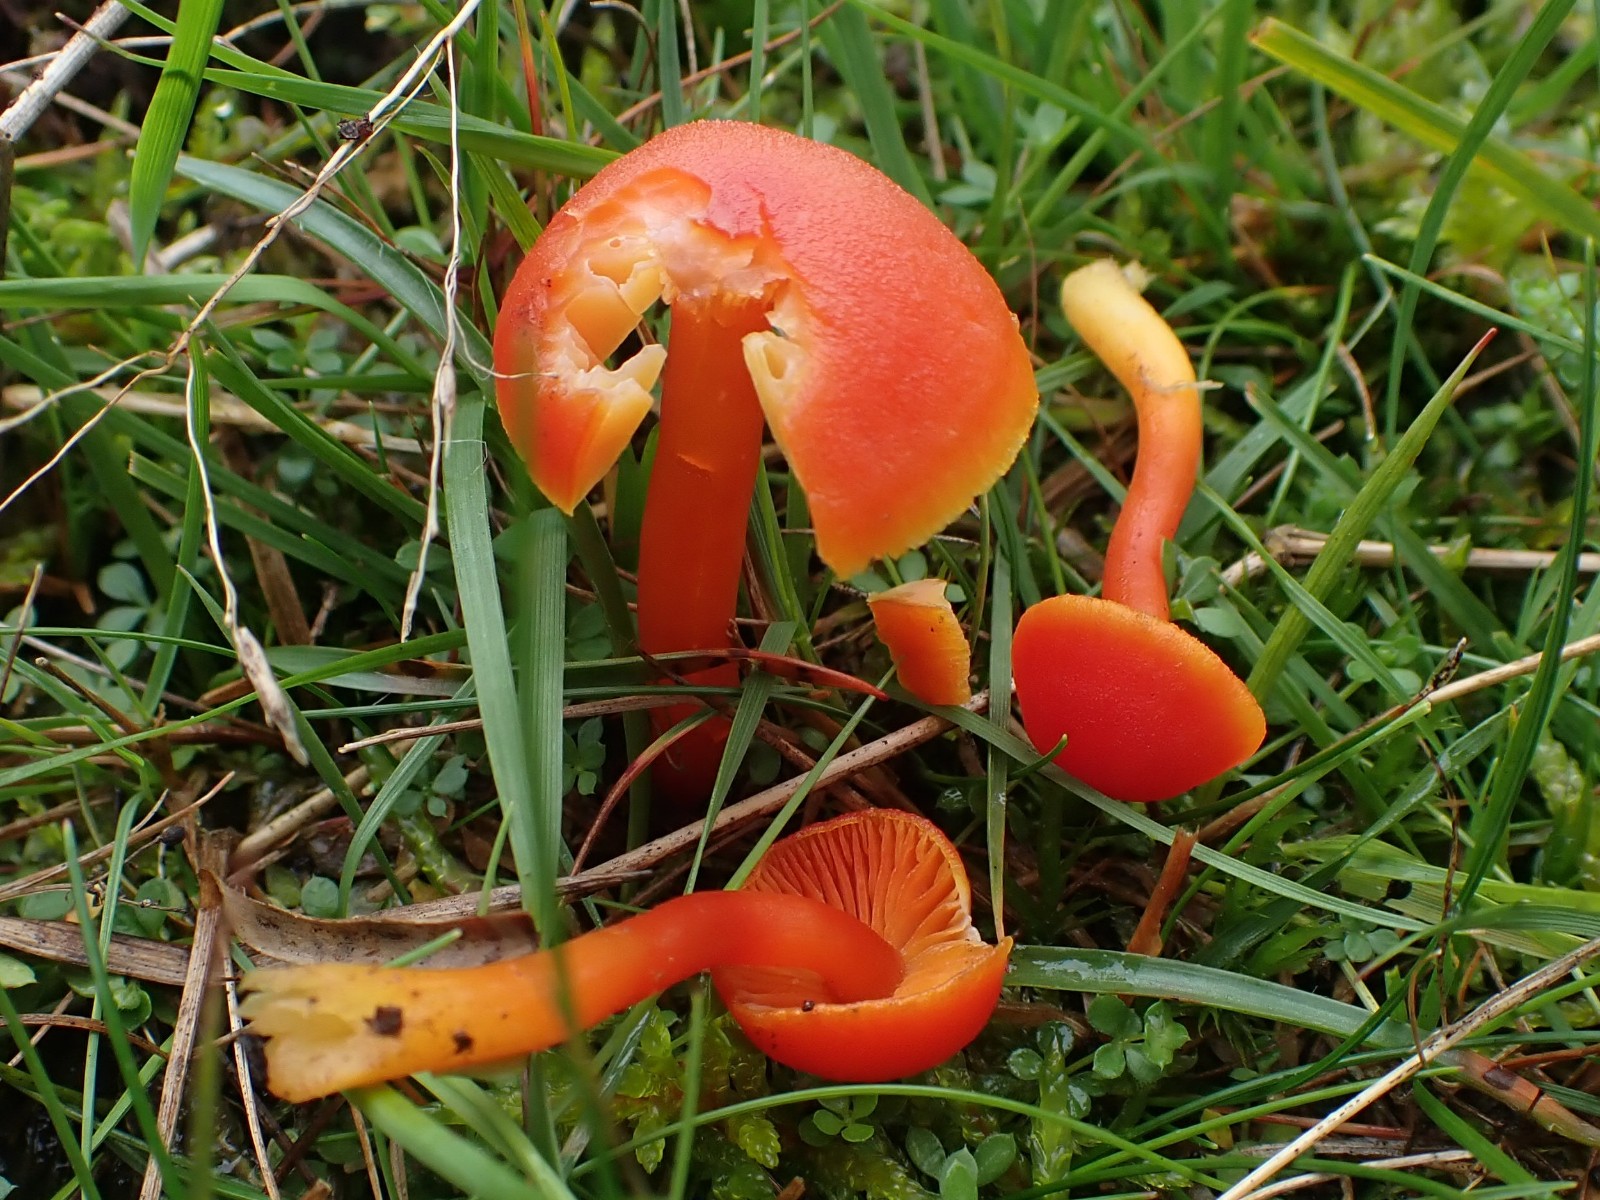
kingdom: Fungi
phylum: Basidiomycota
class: Agaricomycetes
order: Agaricales
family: Hygrophoraceae
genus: Hygrocybe
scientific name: Hygrocybe miniata
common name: mønje-vokshat
